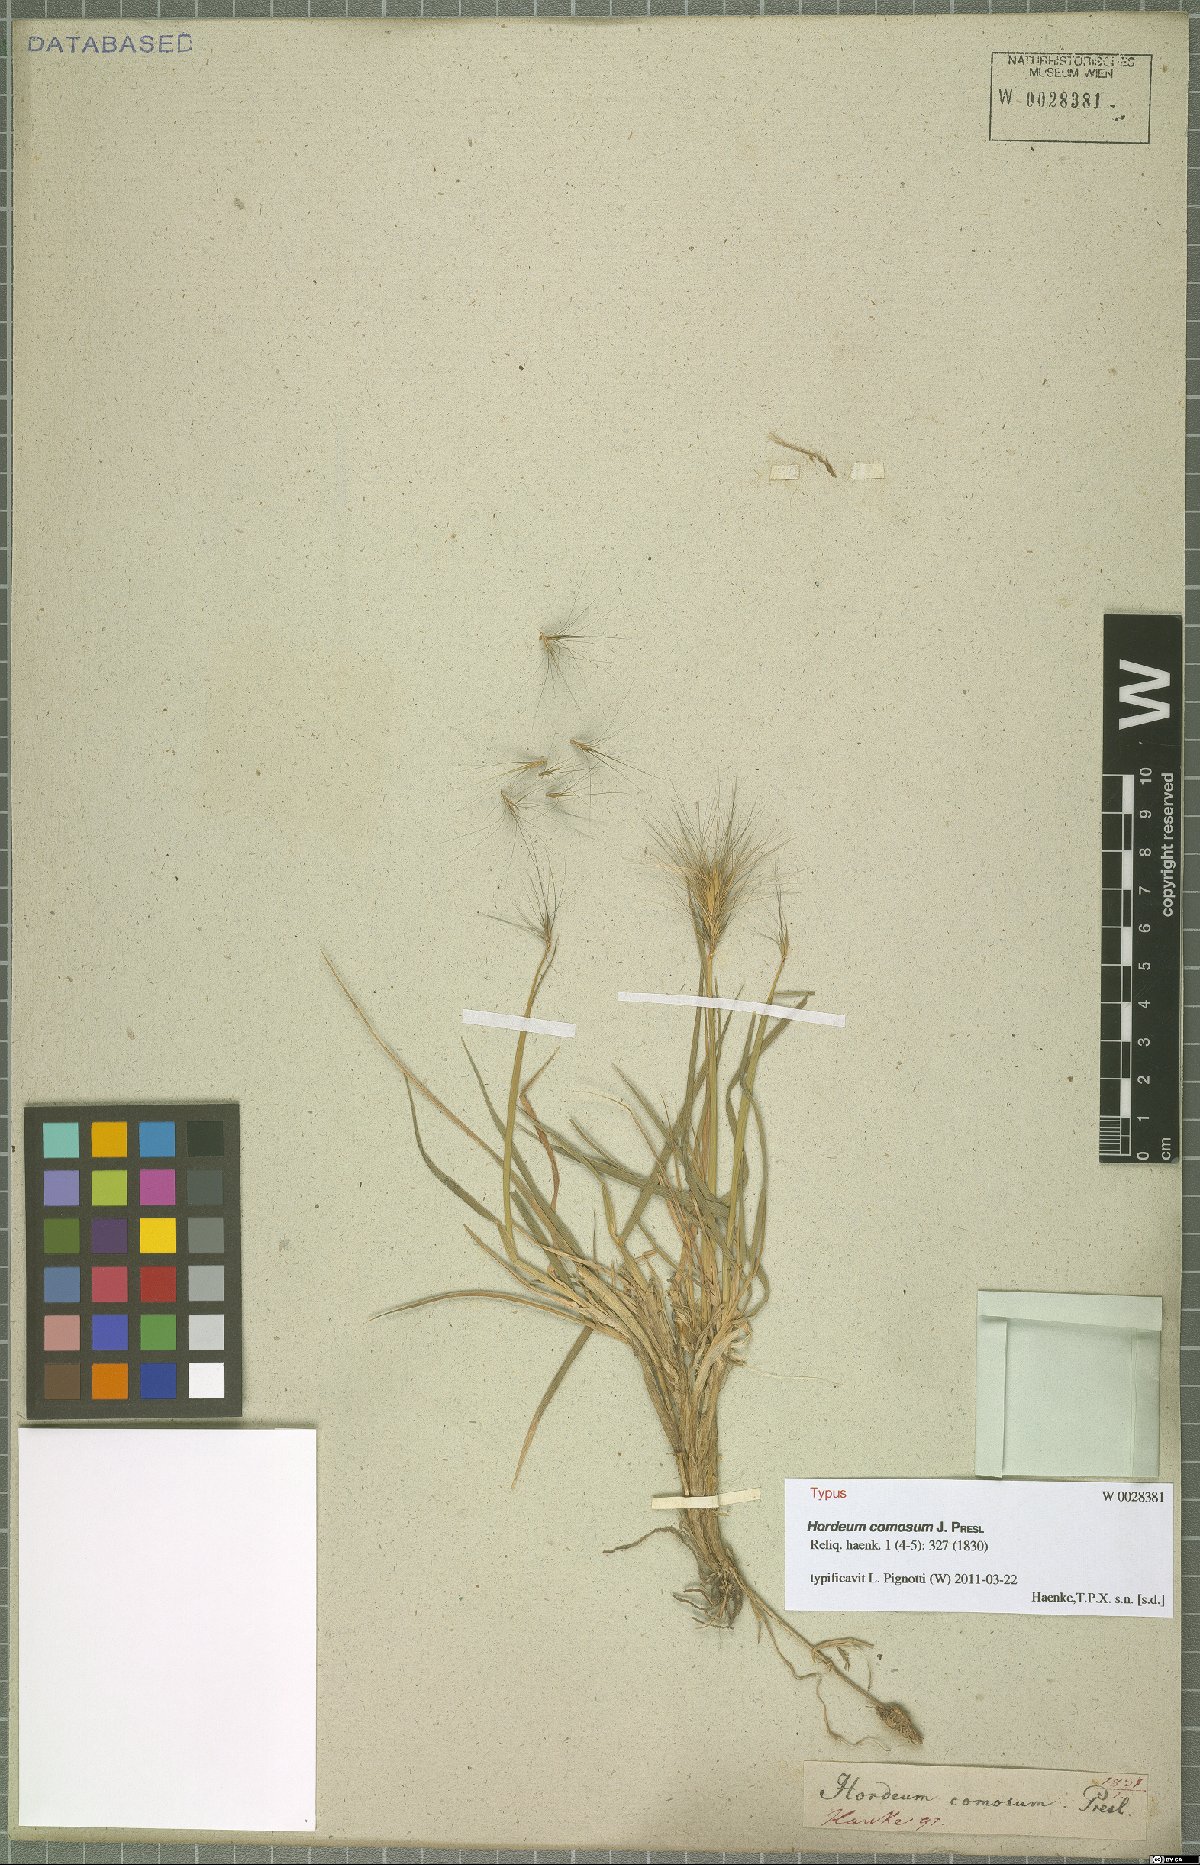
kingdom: Plantae
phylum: Tracheophyta
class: Liliopsida
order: Poales
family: Poaceae
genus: Hordeum
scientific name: Hordeum comosum
